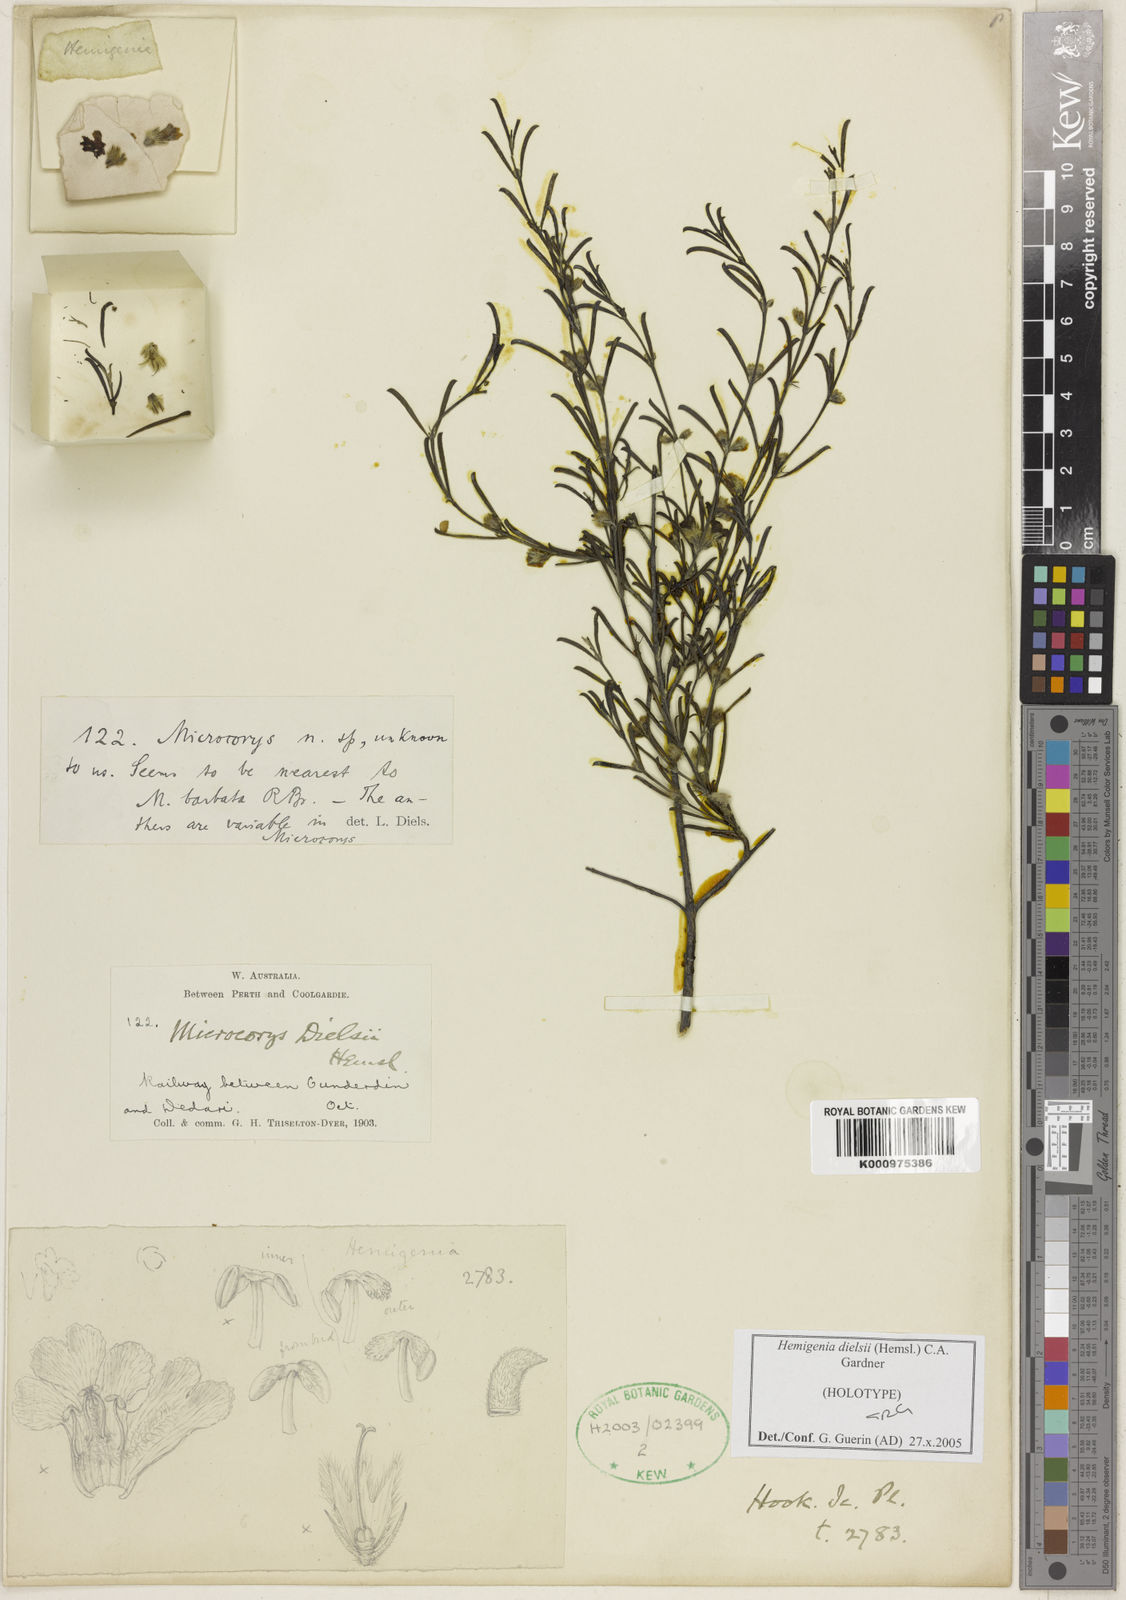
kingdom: Plantae
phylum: Tracheophyta
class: Magnoliopsida
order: Lamiales
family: Lamiaceae
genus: Hemigenia
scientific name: Hemigenia dielsii
